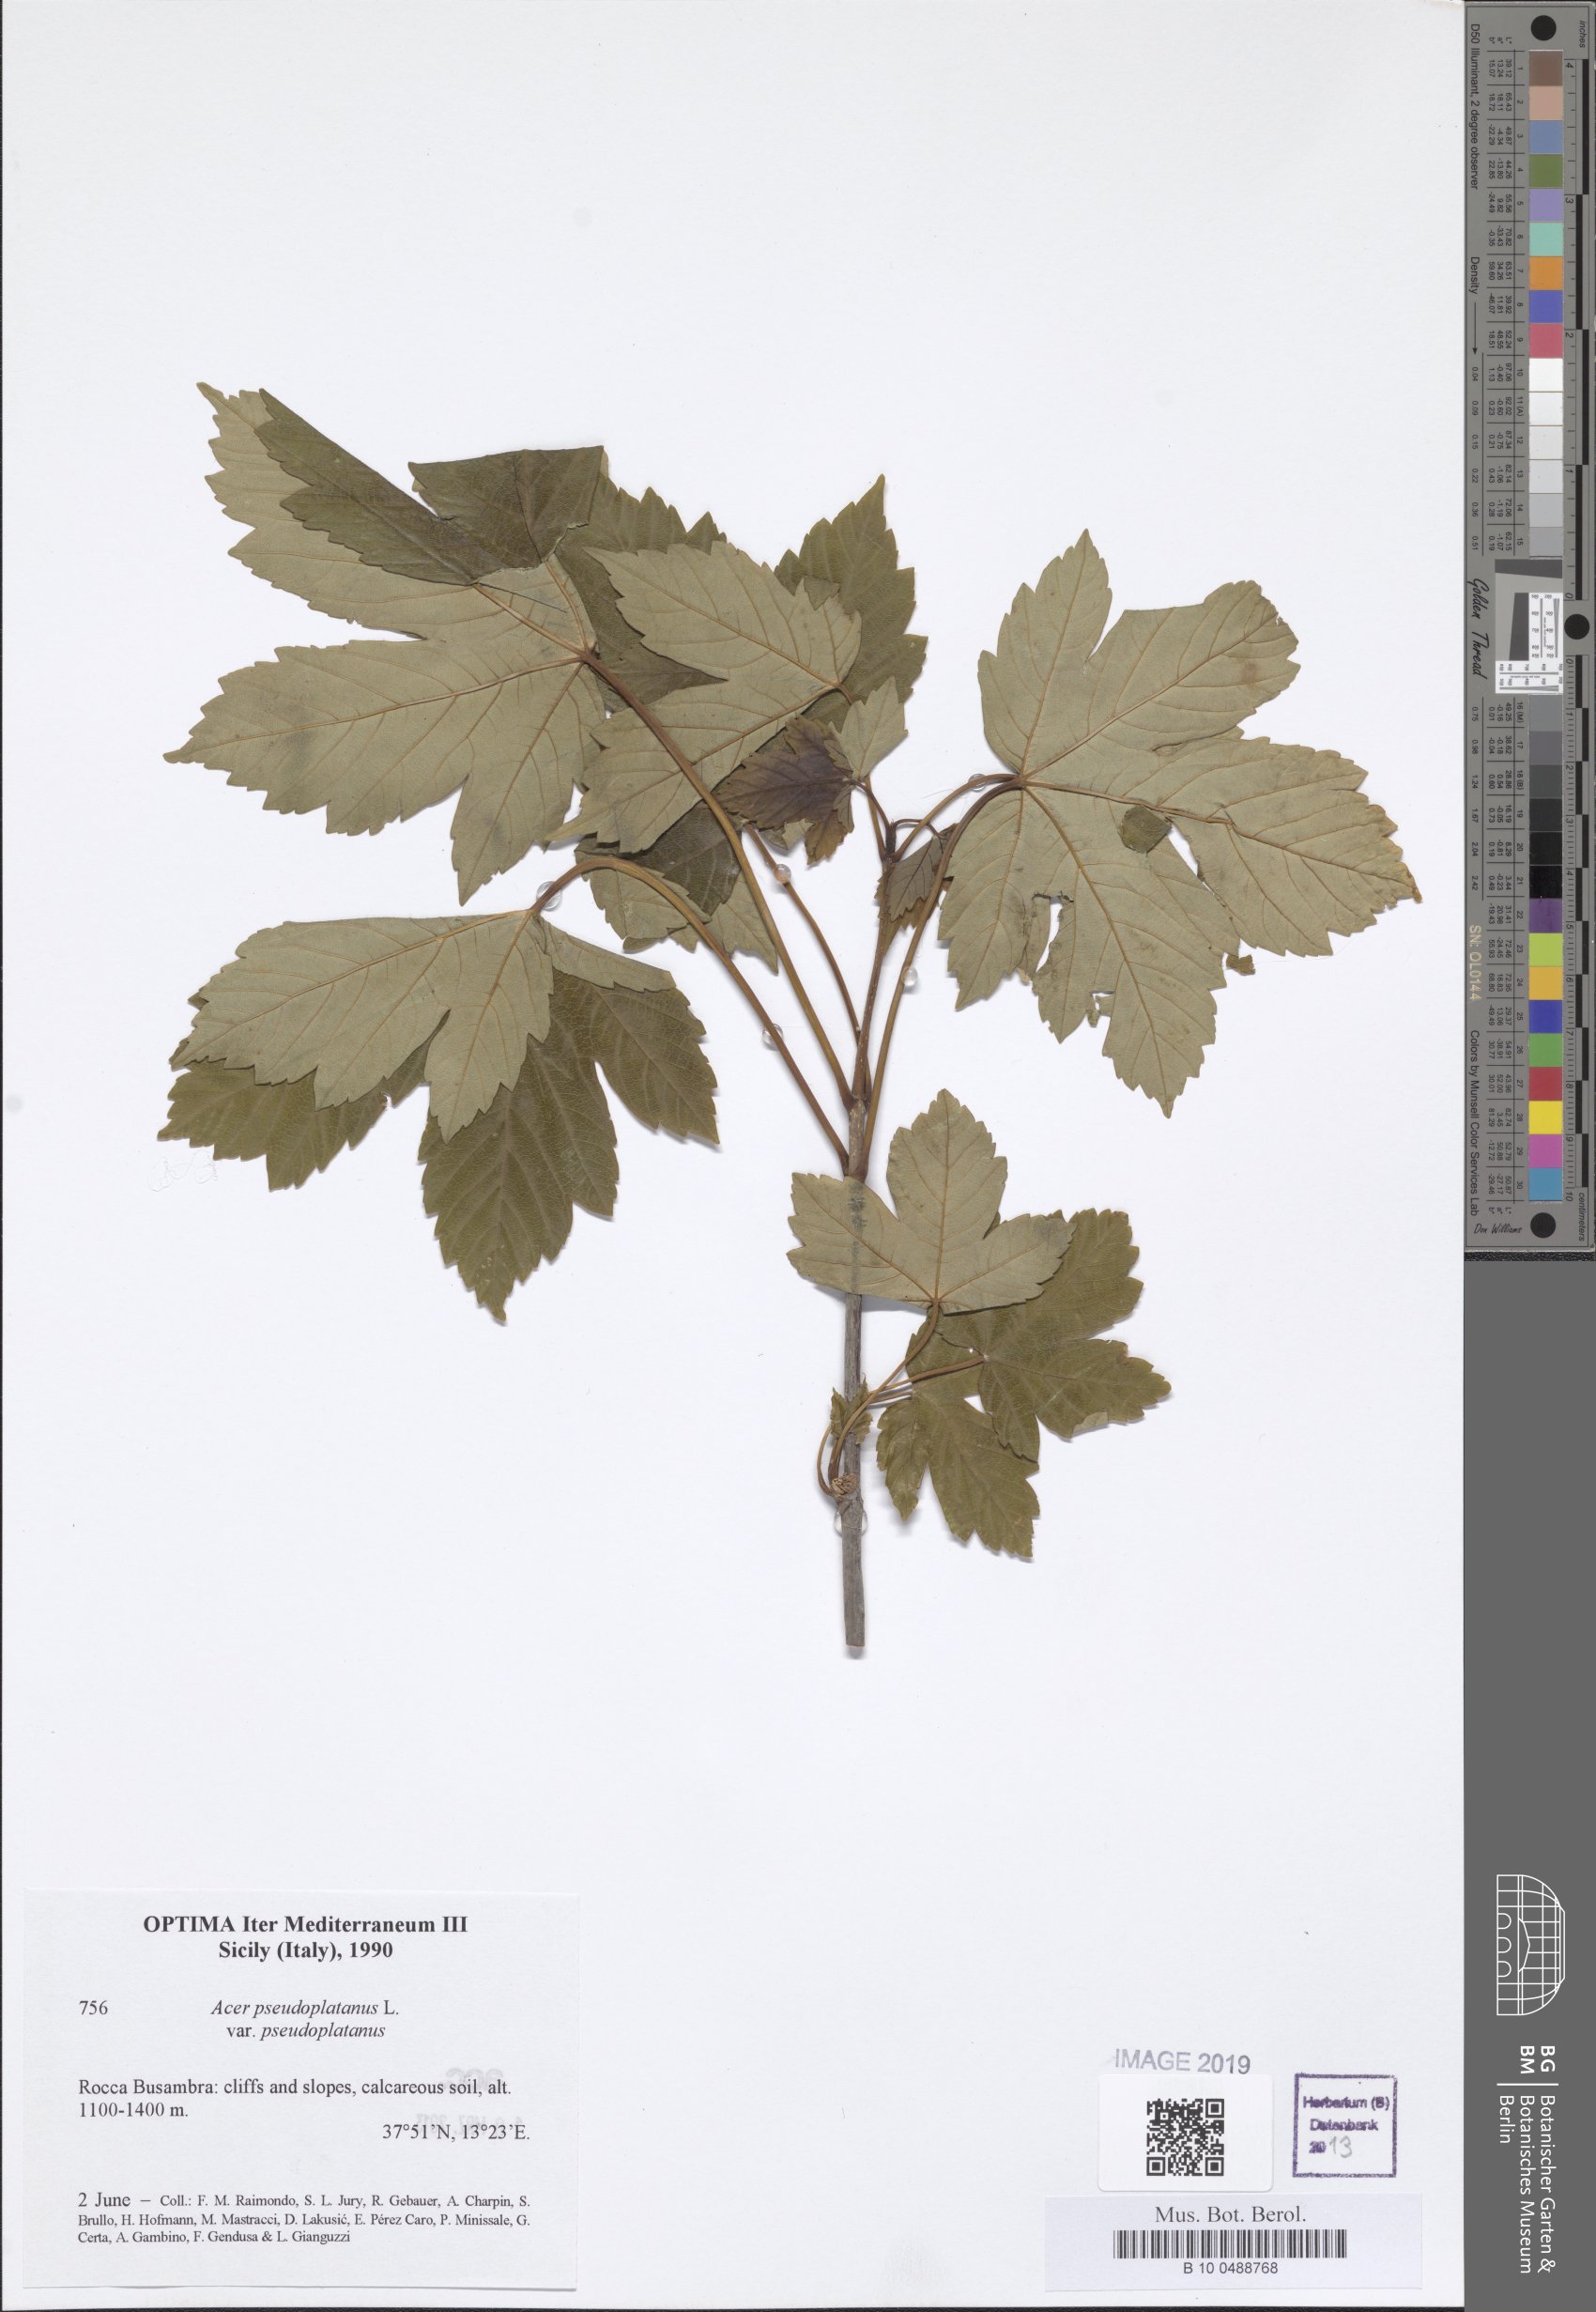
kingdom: Plantae
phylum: Tracheophyta
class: Magnoliopsida
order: Sapindales
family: Sapindaceae
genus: Acer
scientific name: Acer pseudoplatanus
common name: Sycamore
